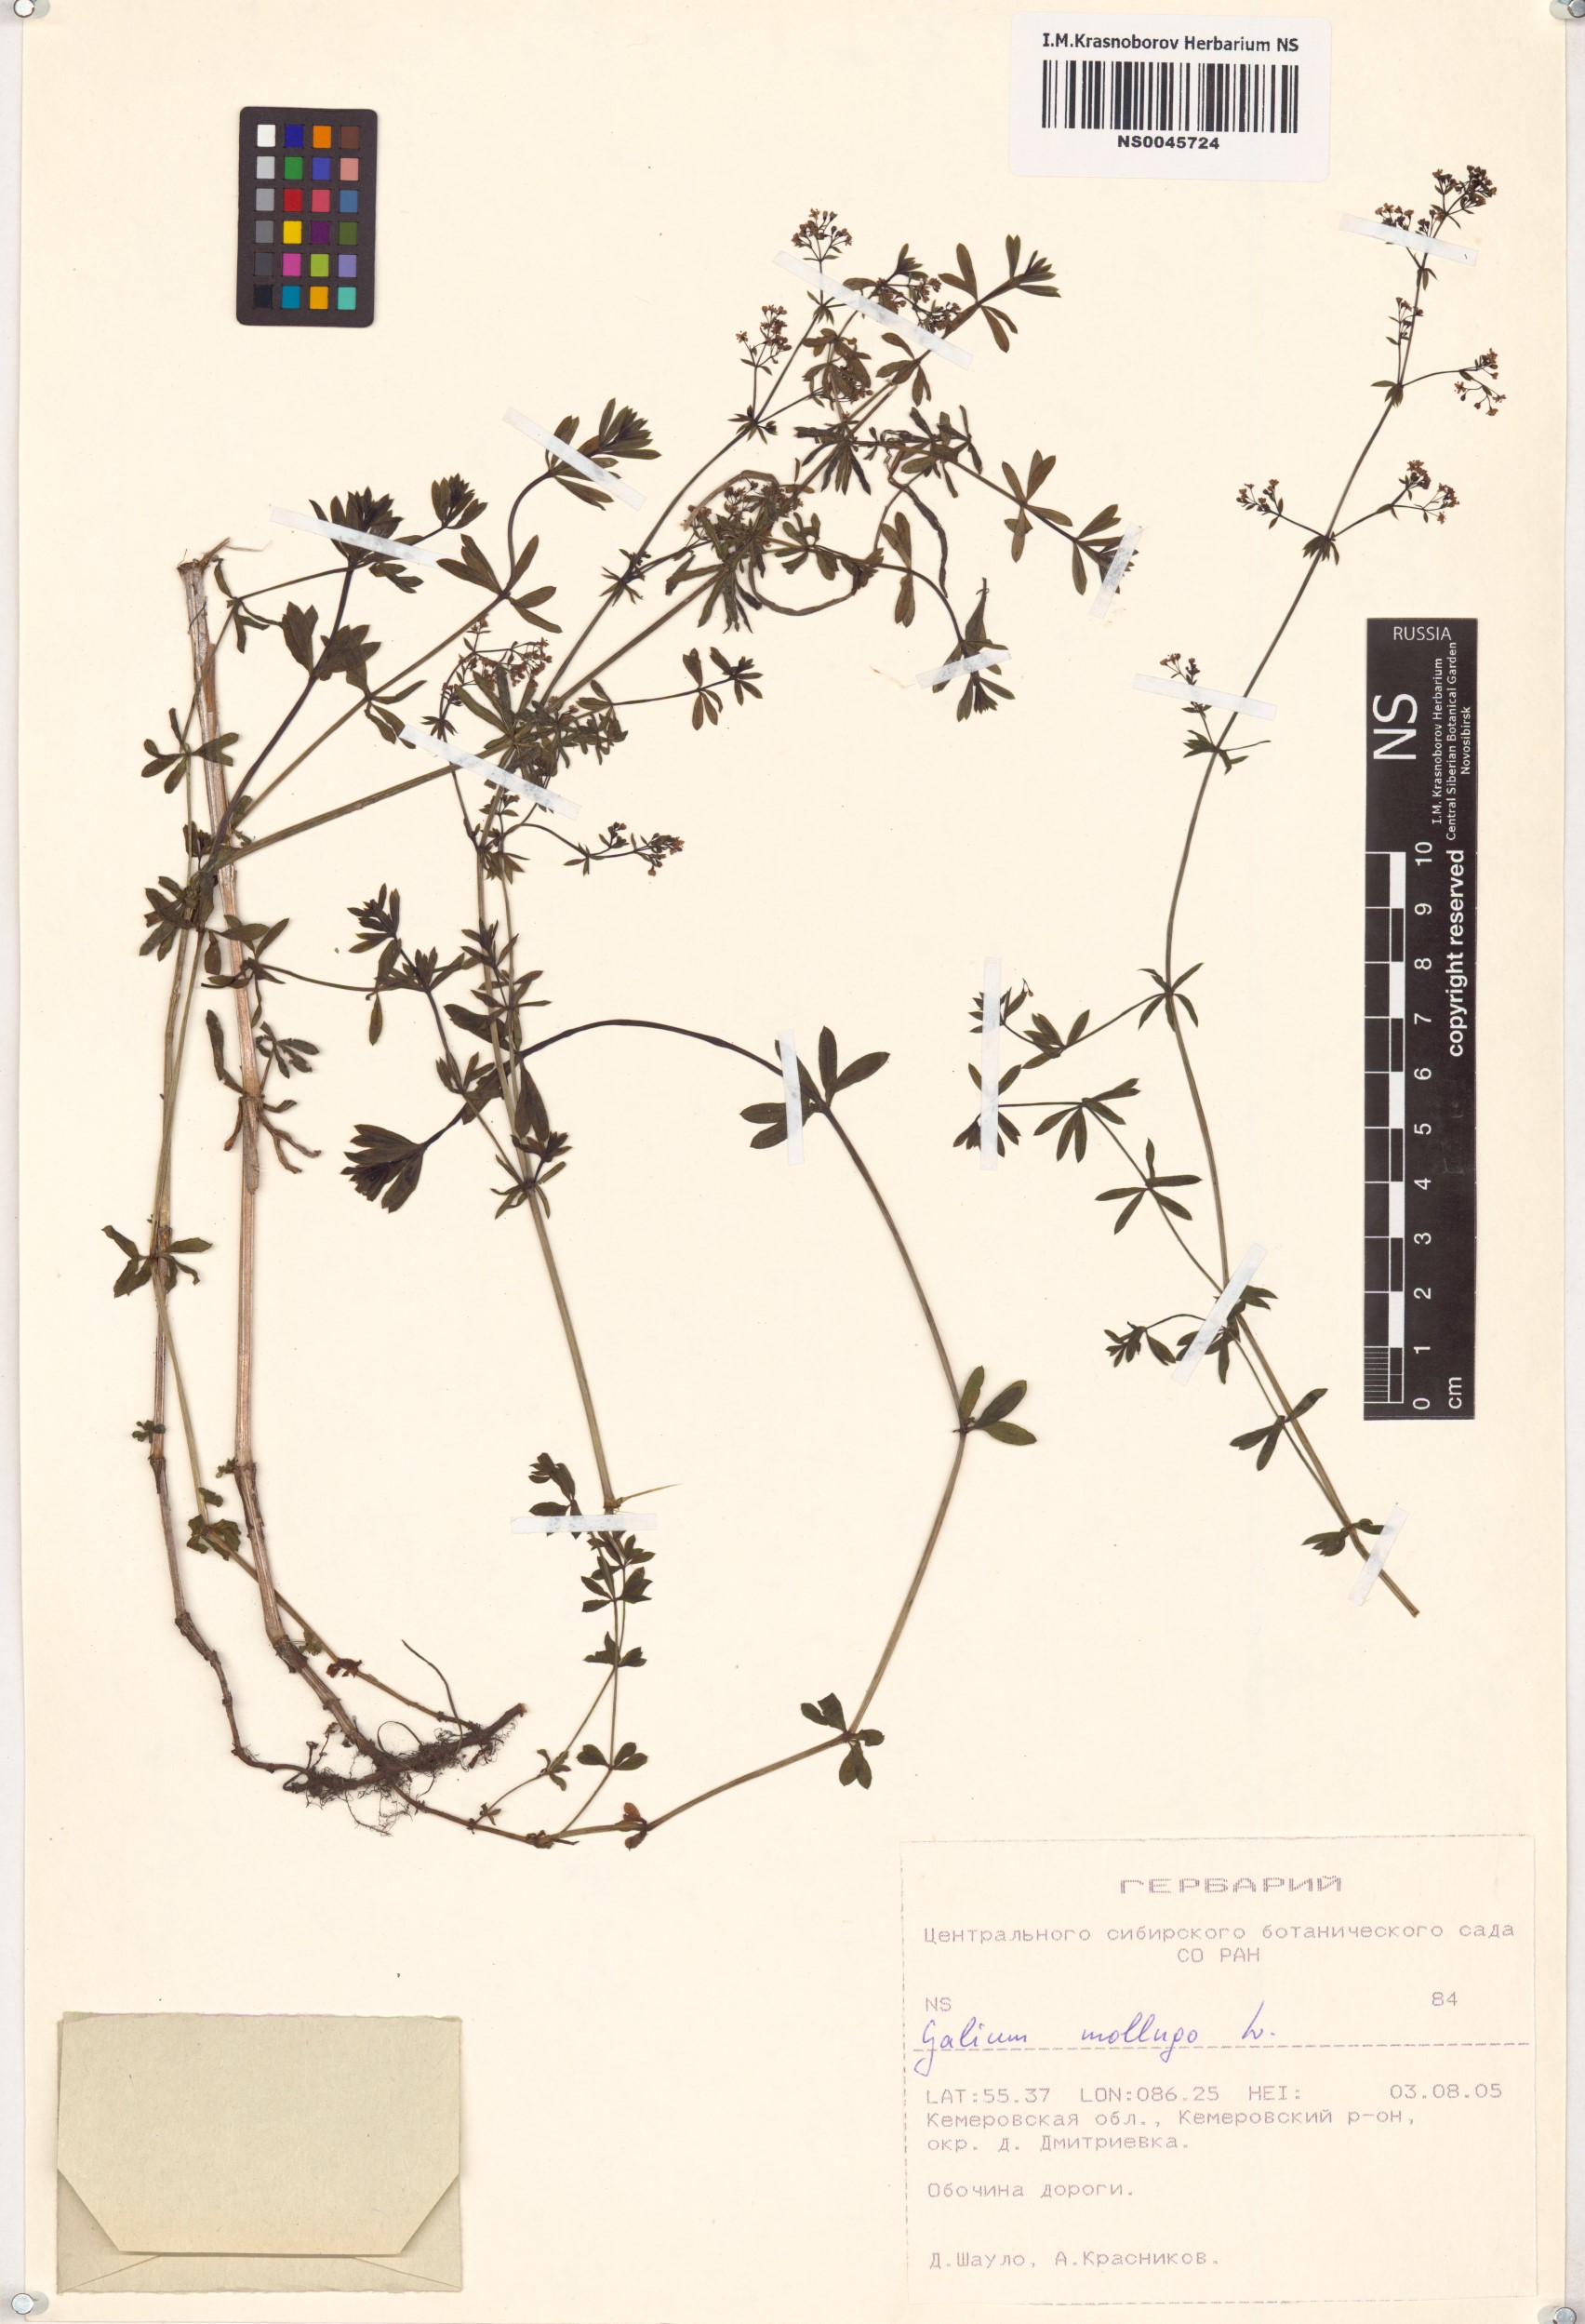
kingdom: Plantae
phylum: Tracheophyta
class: Magnoliopsida
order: Gentianales
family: Rubiaceae
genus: Galium
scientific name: Galium mollugo
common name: Hedge bedstraw
